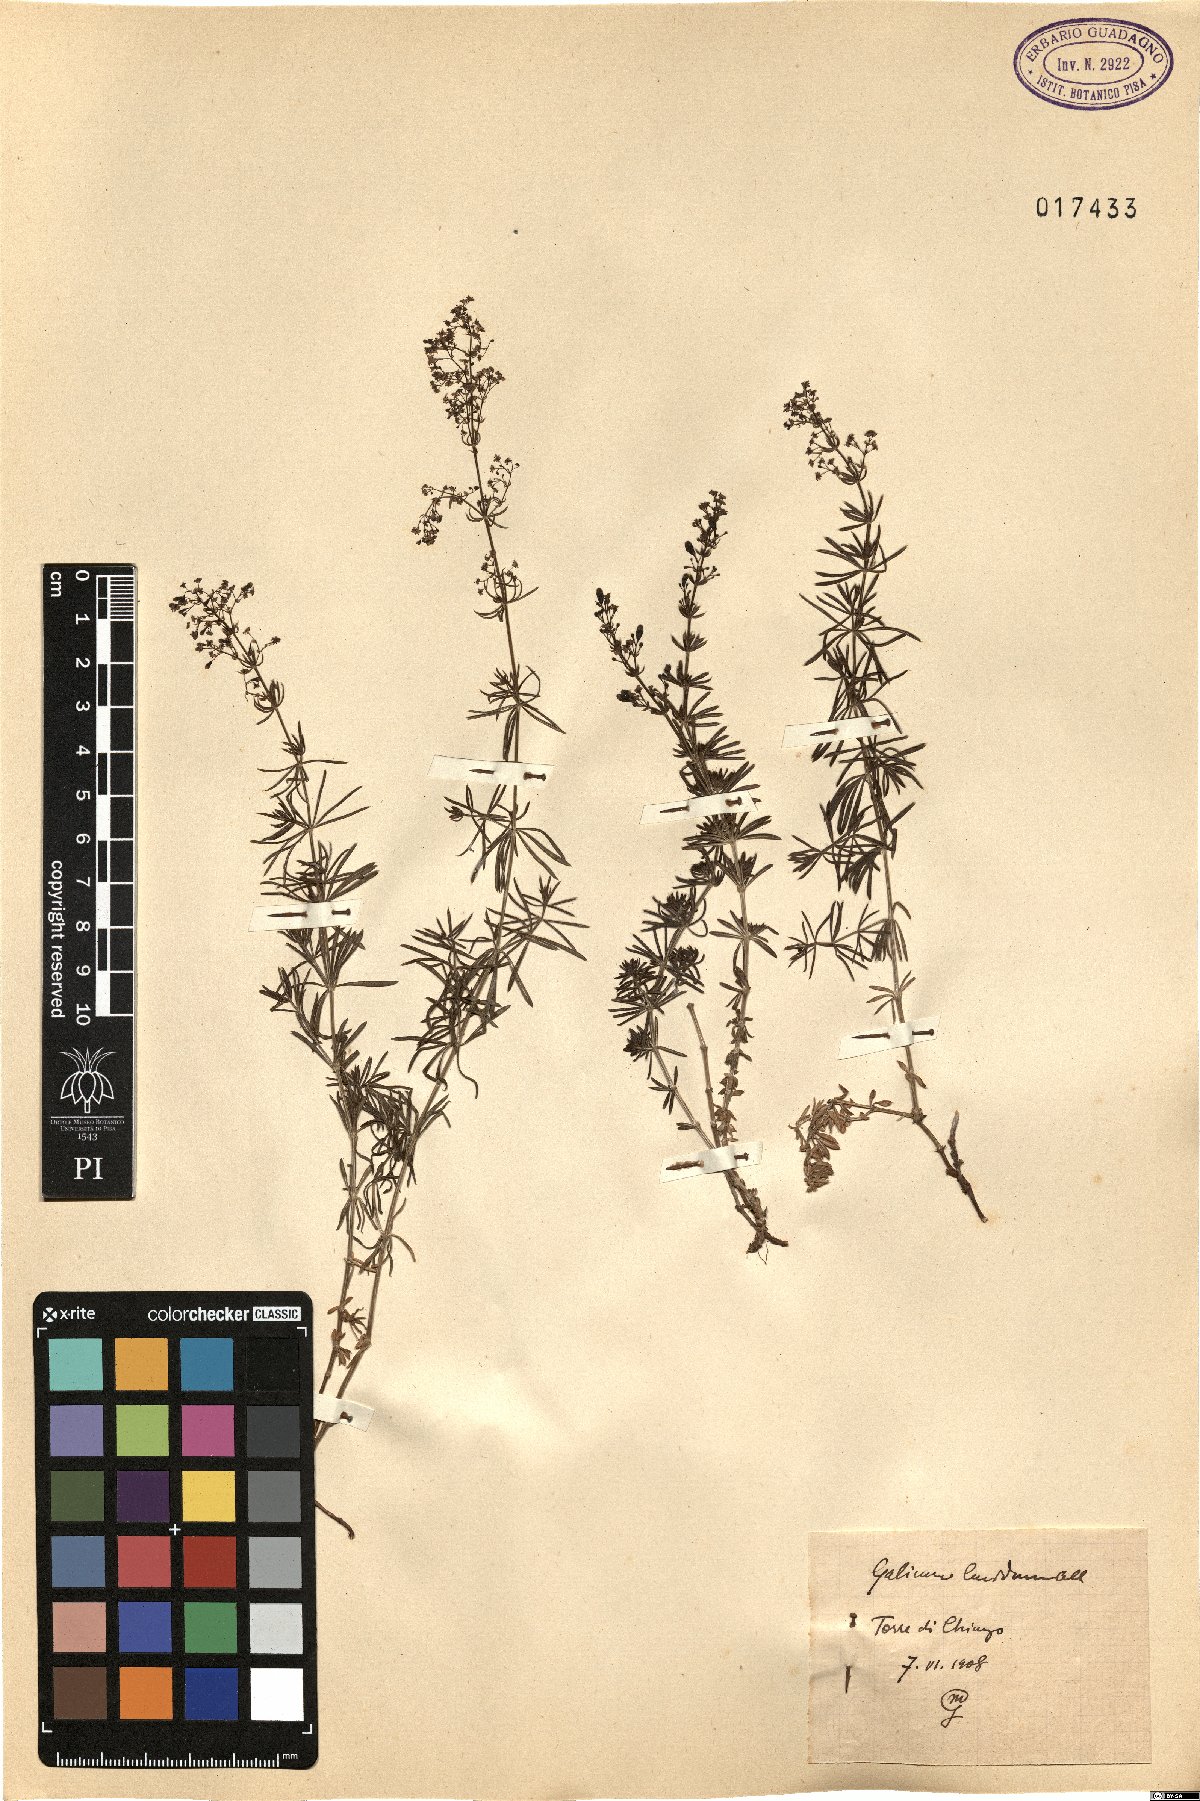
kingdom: Plantae
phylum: Tracheophyta
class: Magnoliopsida
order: Gentianales
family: Rubiaceae
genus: Galium
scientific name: Galium lucidum
